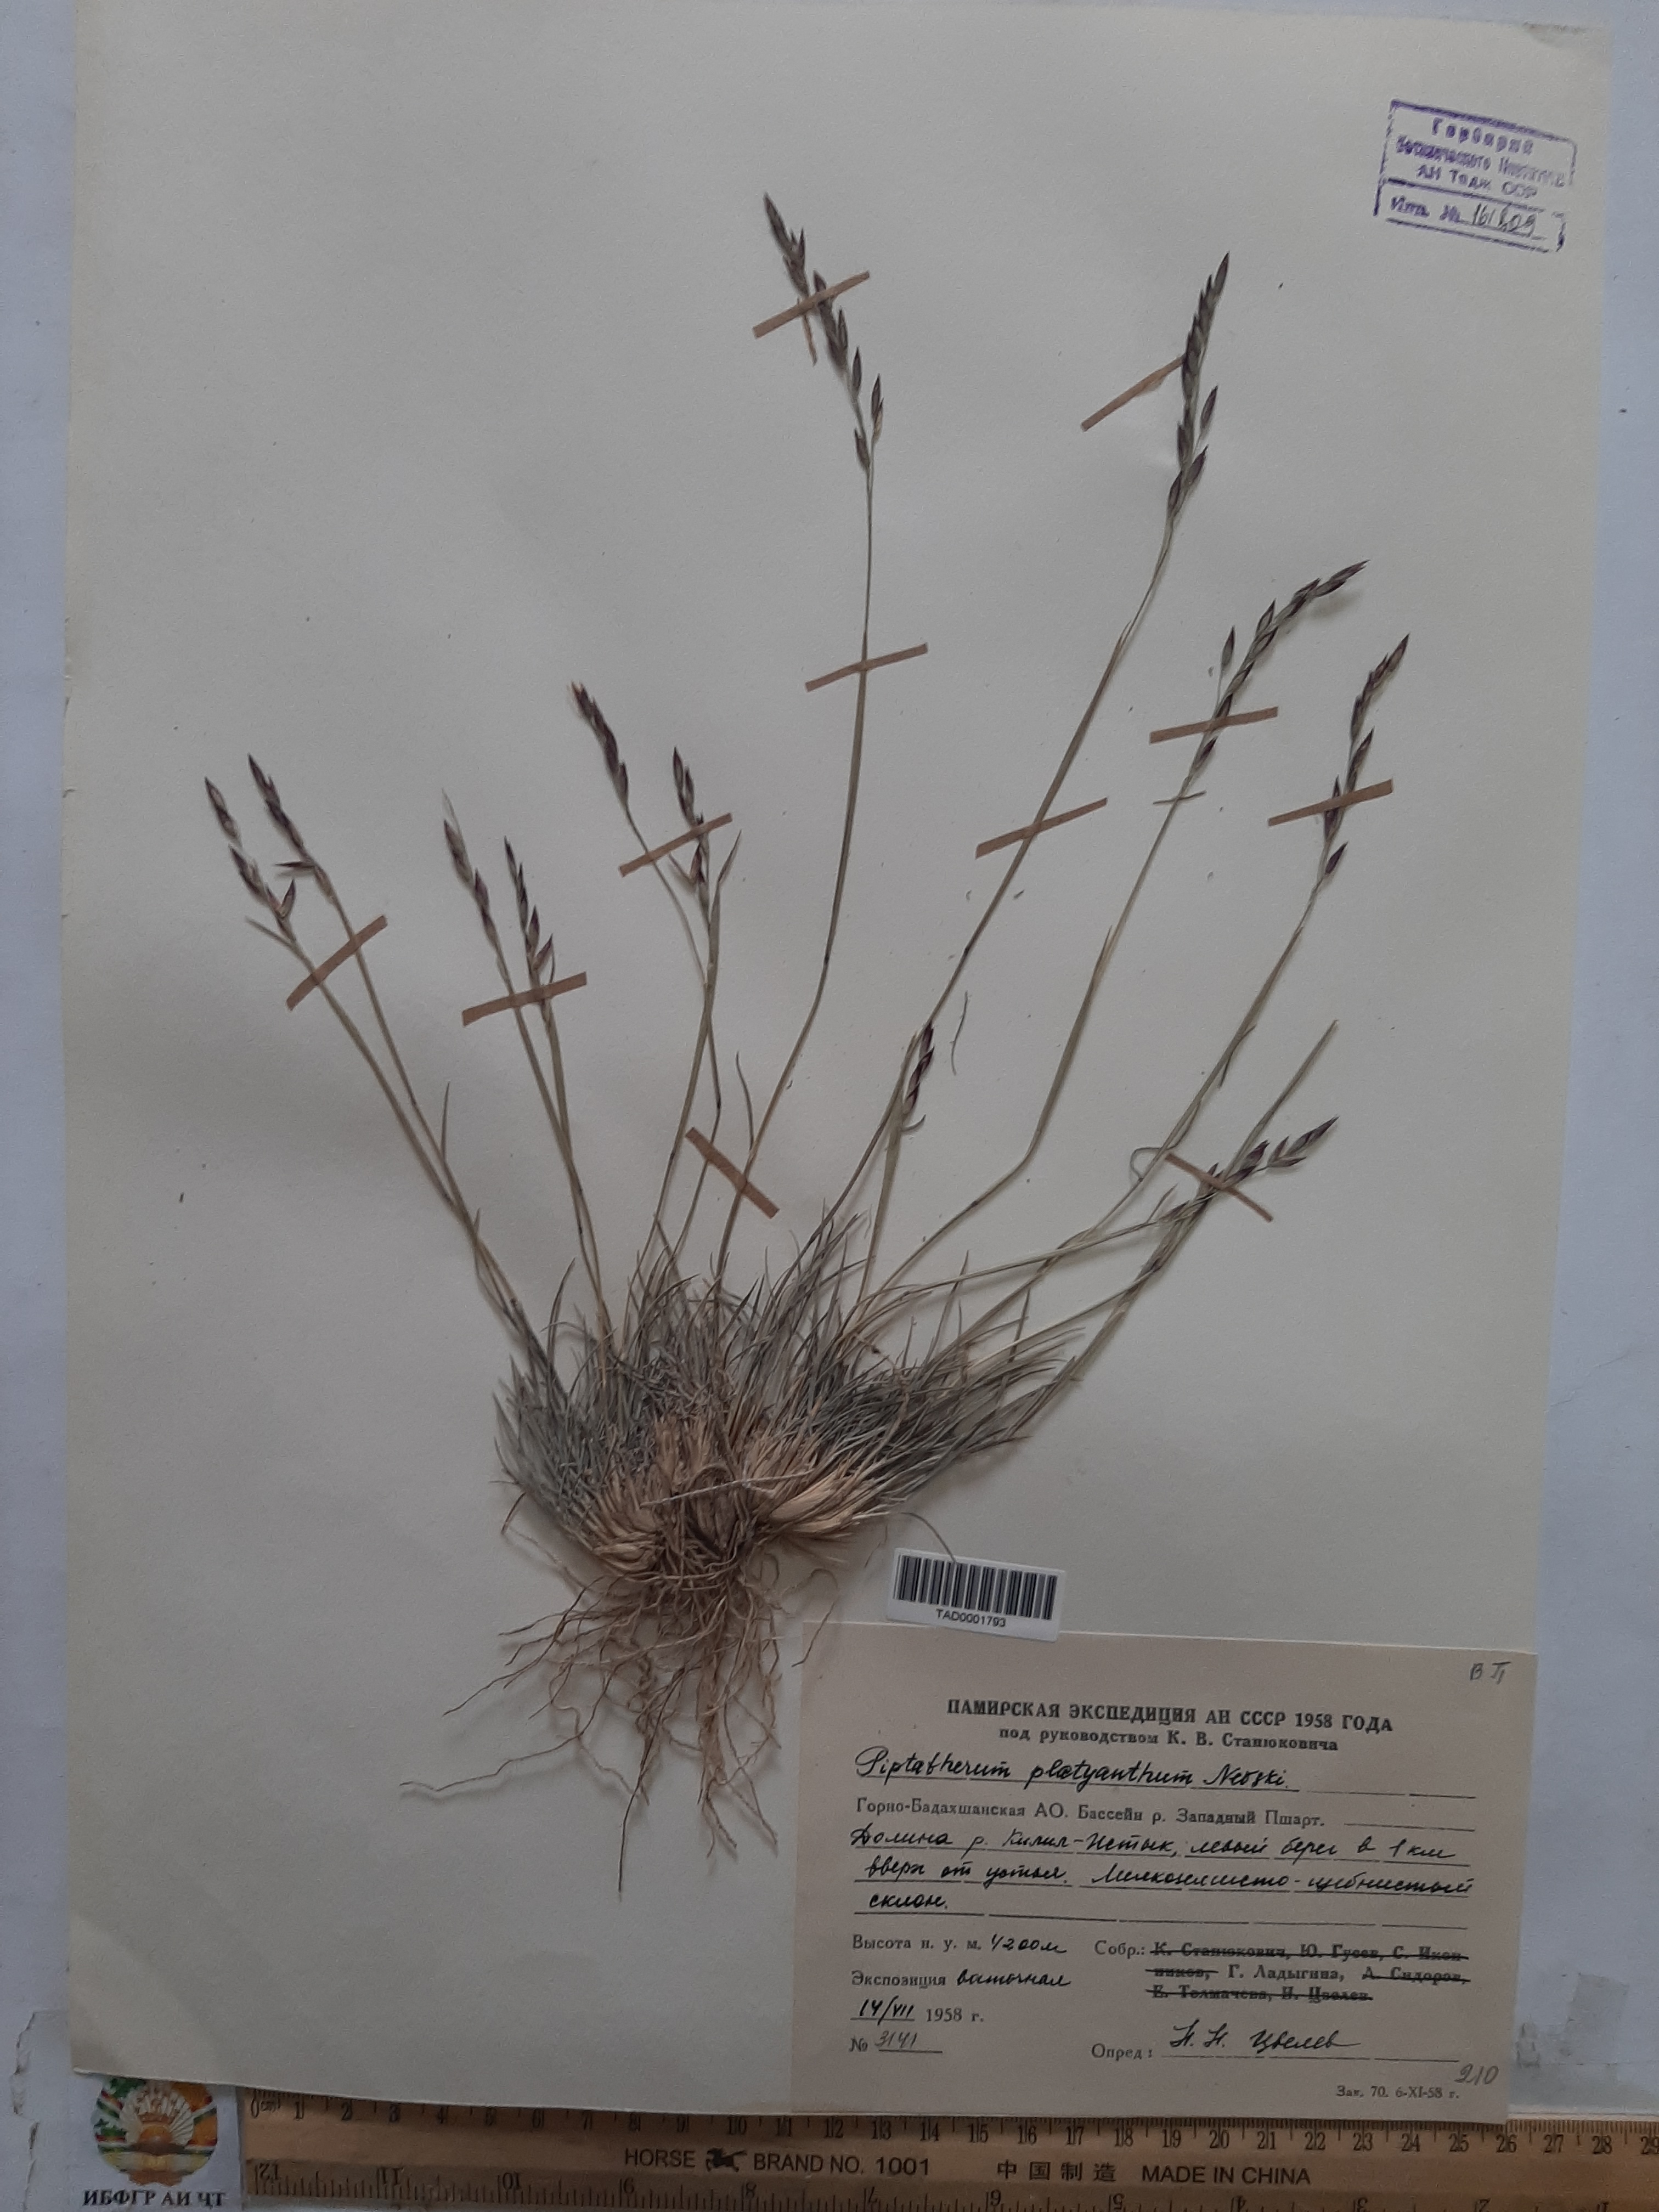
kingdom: Plantae
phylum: Tracheophyta
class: Liliopsida
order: Poales
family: Poaceae
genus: Piptatherum
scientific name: Piptatherum platyanthum
